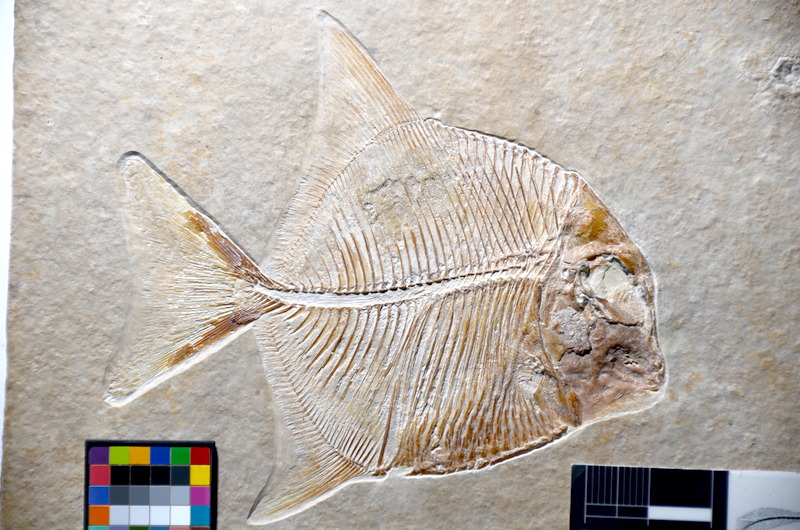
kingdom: Animalia
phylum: Chordata
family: Pycnodontidae
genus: Proscinetes
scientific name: Proscinetes elegans
